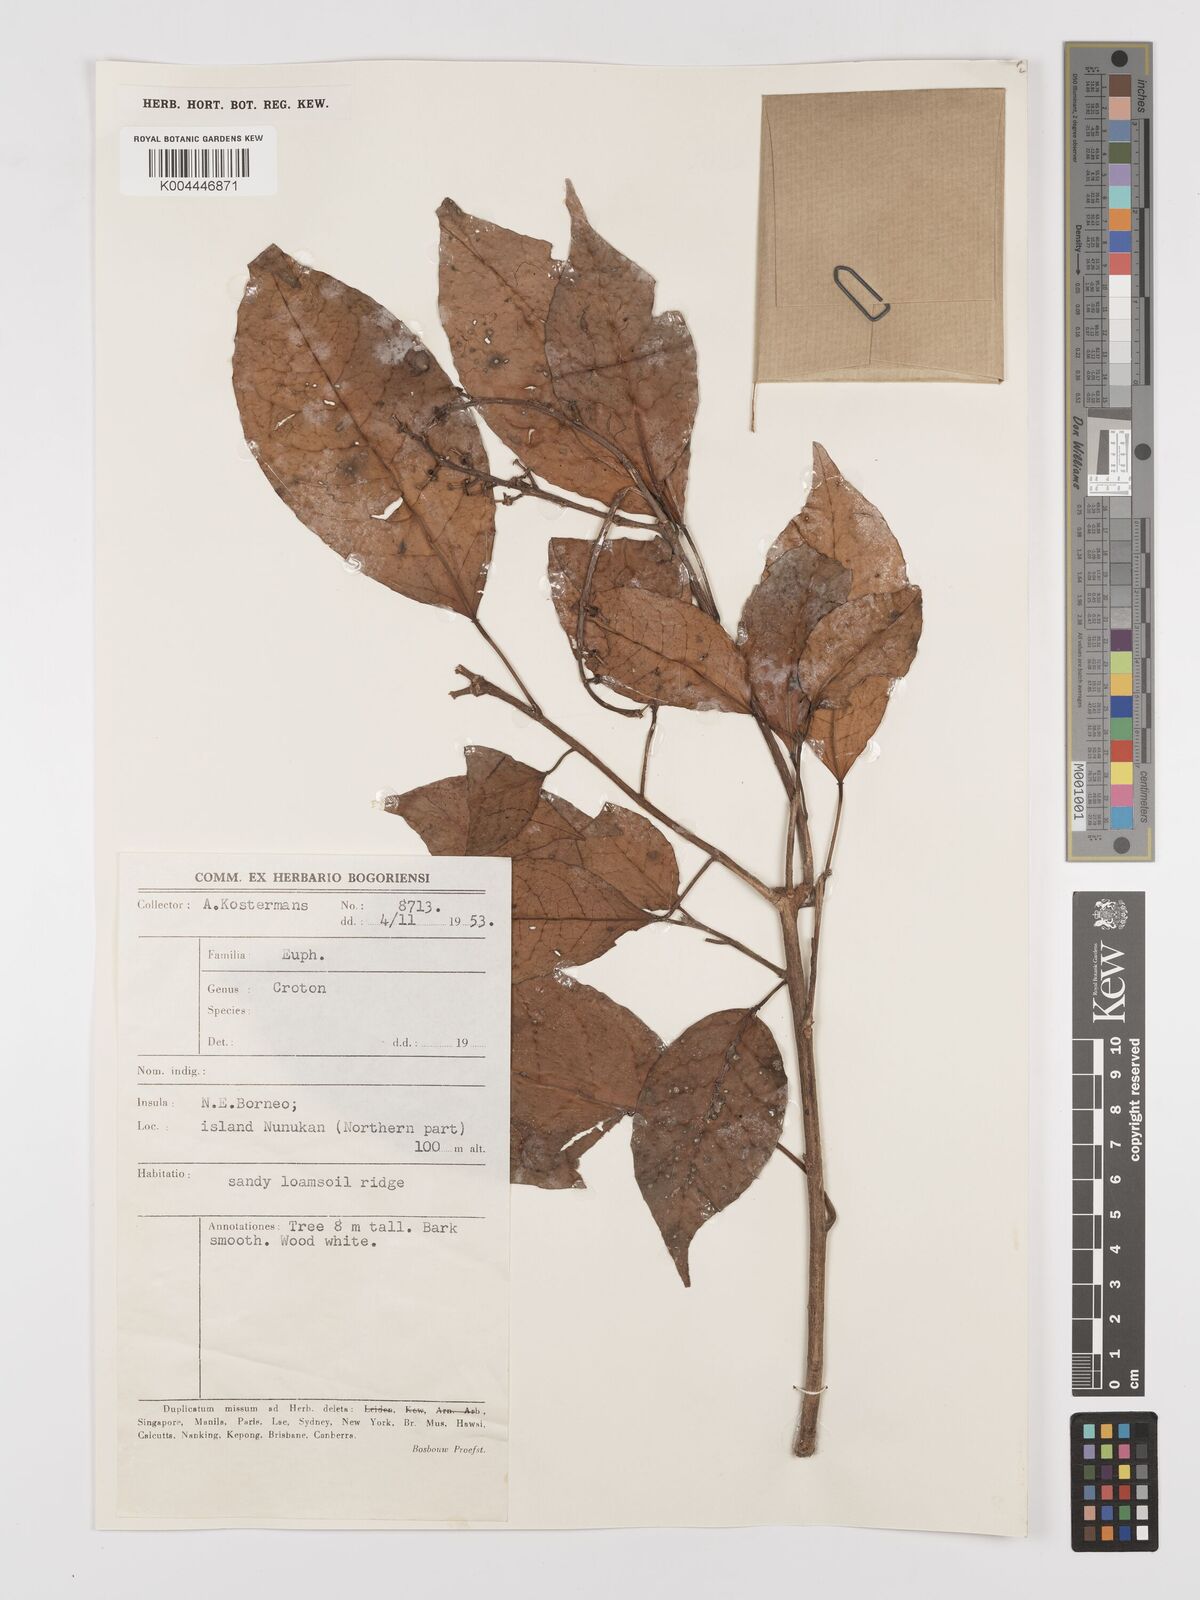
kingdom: Plantae
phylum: Tracheophyta
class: Magnoliopsida
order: Malpighiales
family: Euphorbiaceae
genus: Croton
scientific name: Croton oblongus
